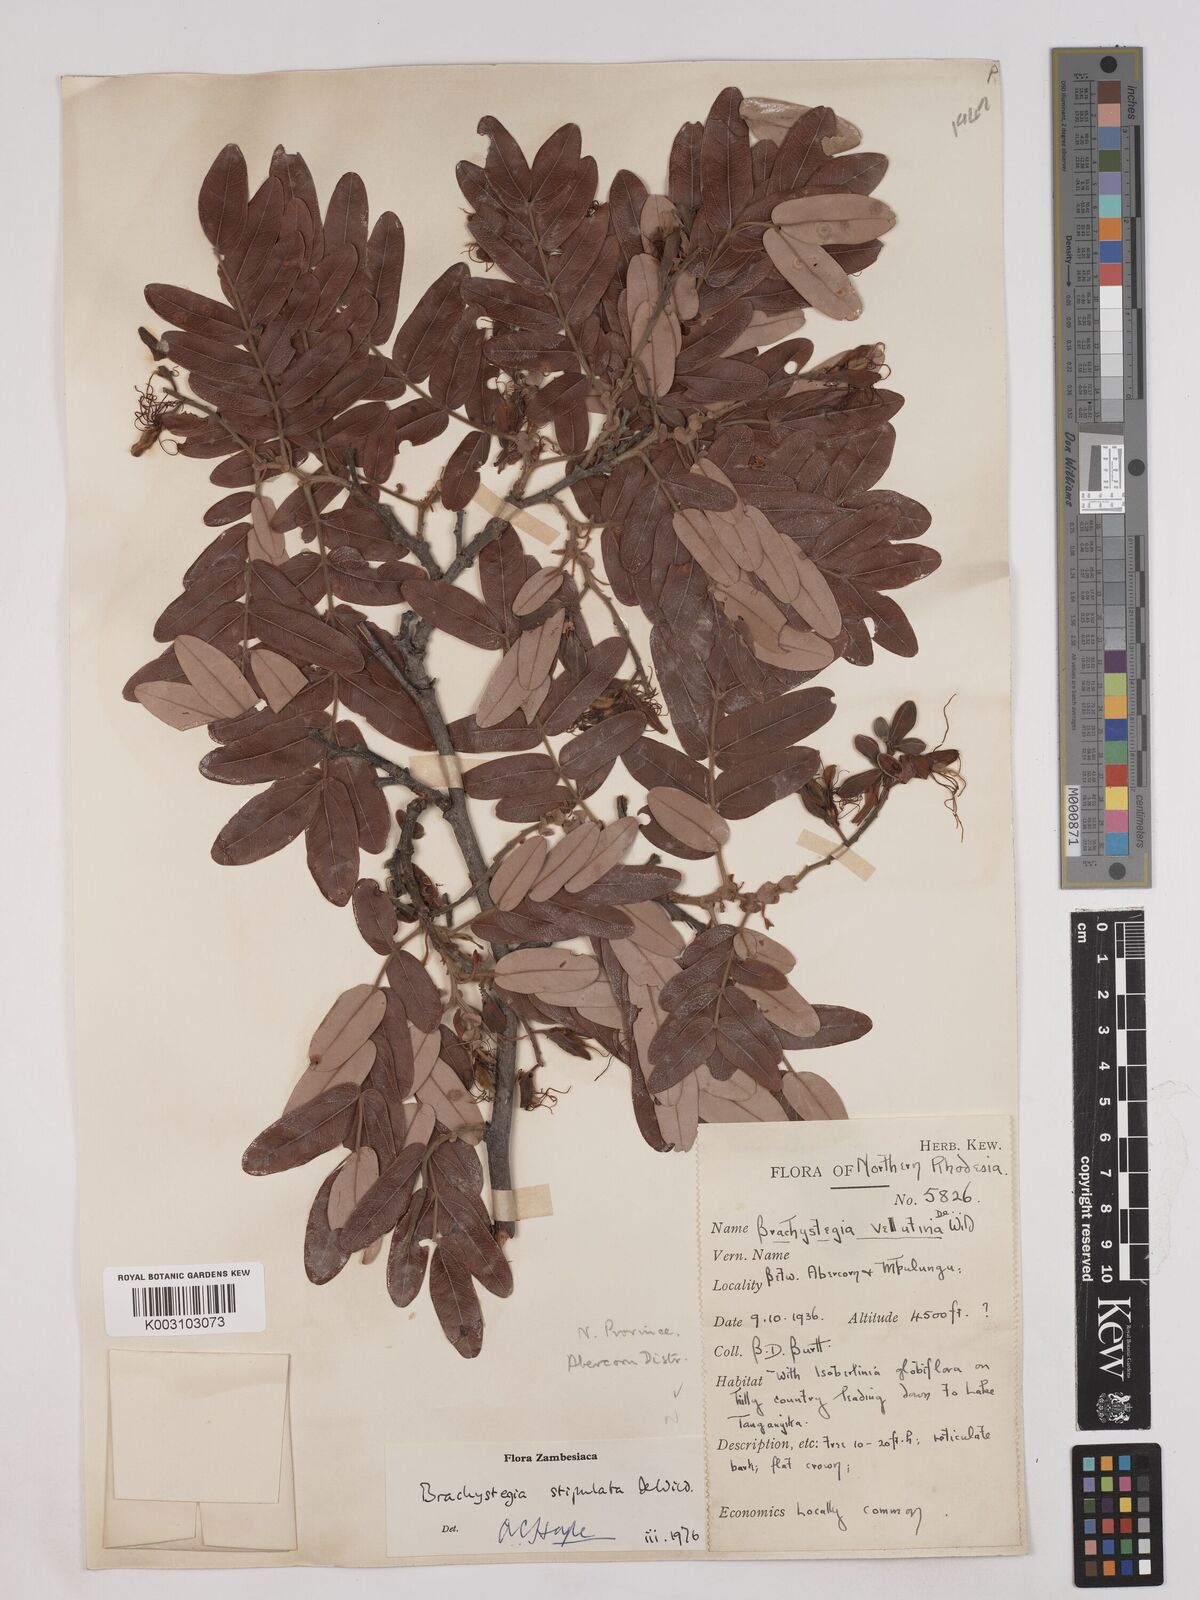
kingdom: Plantae
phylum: Tracheophyta
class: Magnoliopsida
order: Fabales
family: Fabaceae
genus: Brachystegia
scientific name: Brachystegia stipulata
